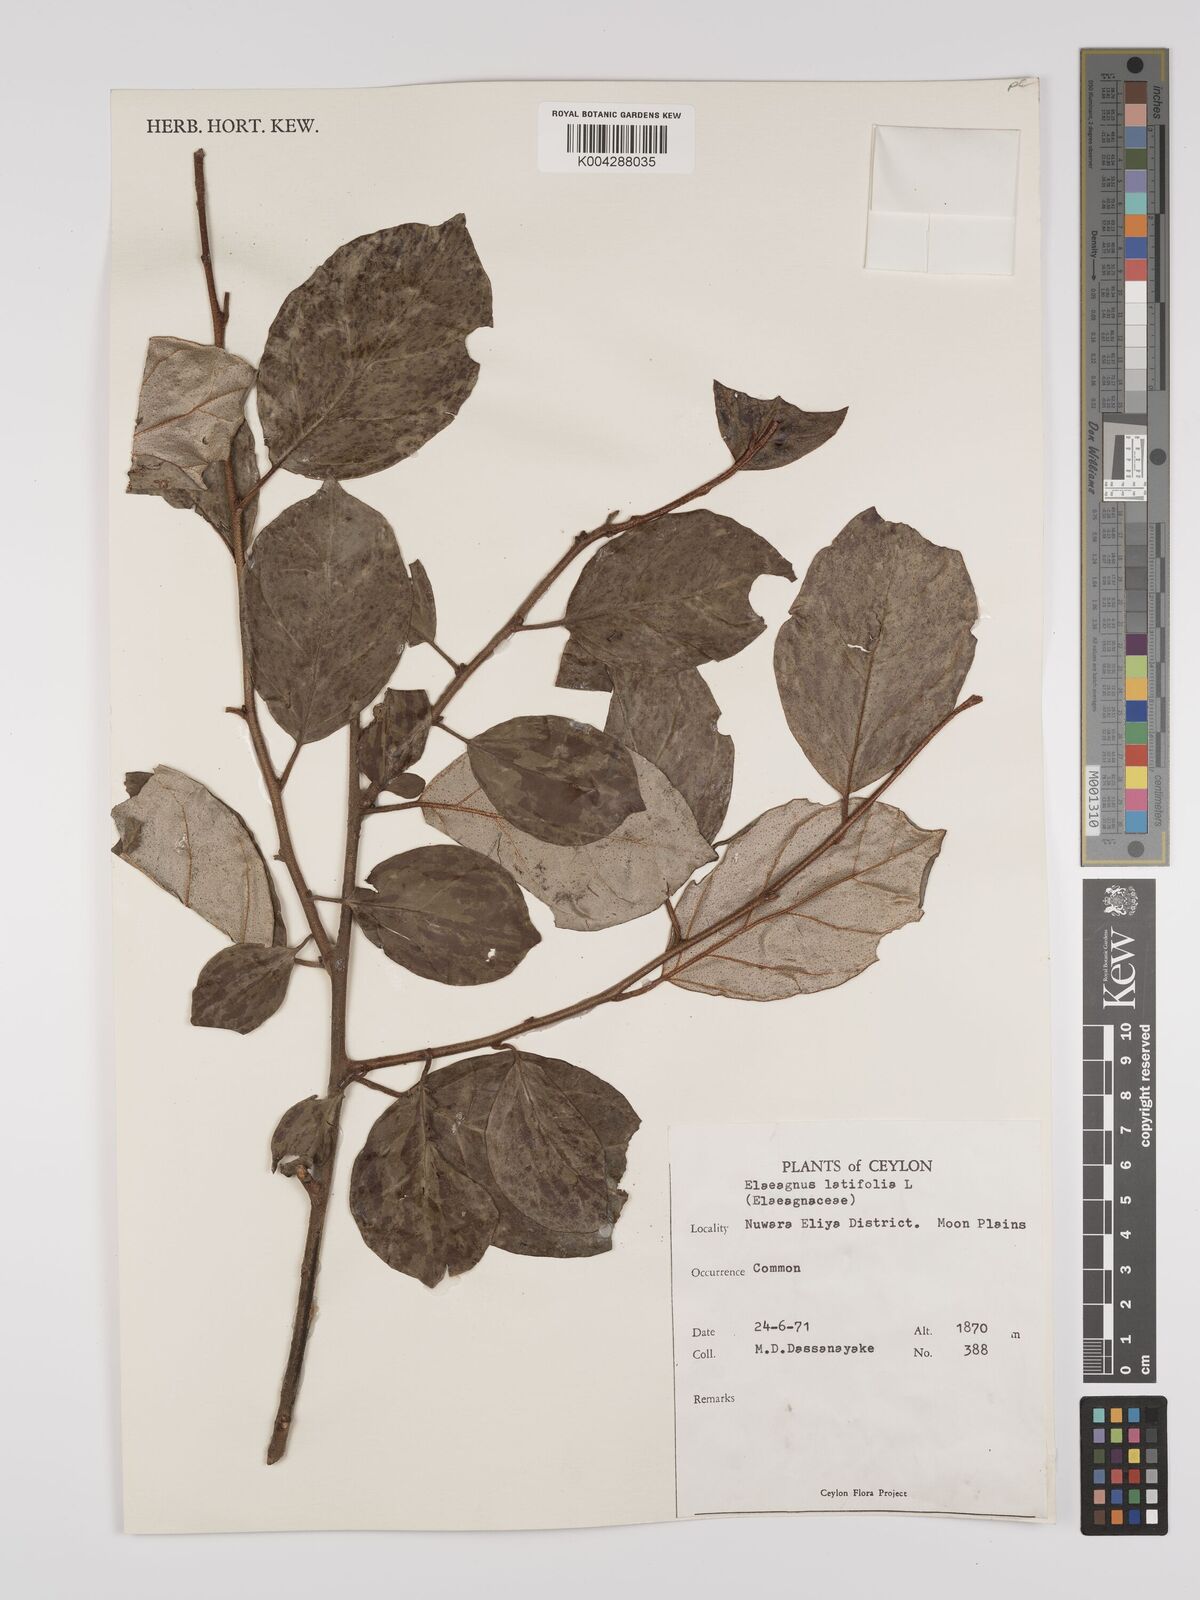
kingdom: Plantae
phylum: Tracheophyta
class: Magnoliopsida
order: Rosales
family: Elaeagnaceae
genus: Elaeagnus
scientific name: Elaeagnus latifolia
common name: Oleaster
